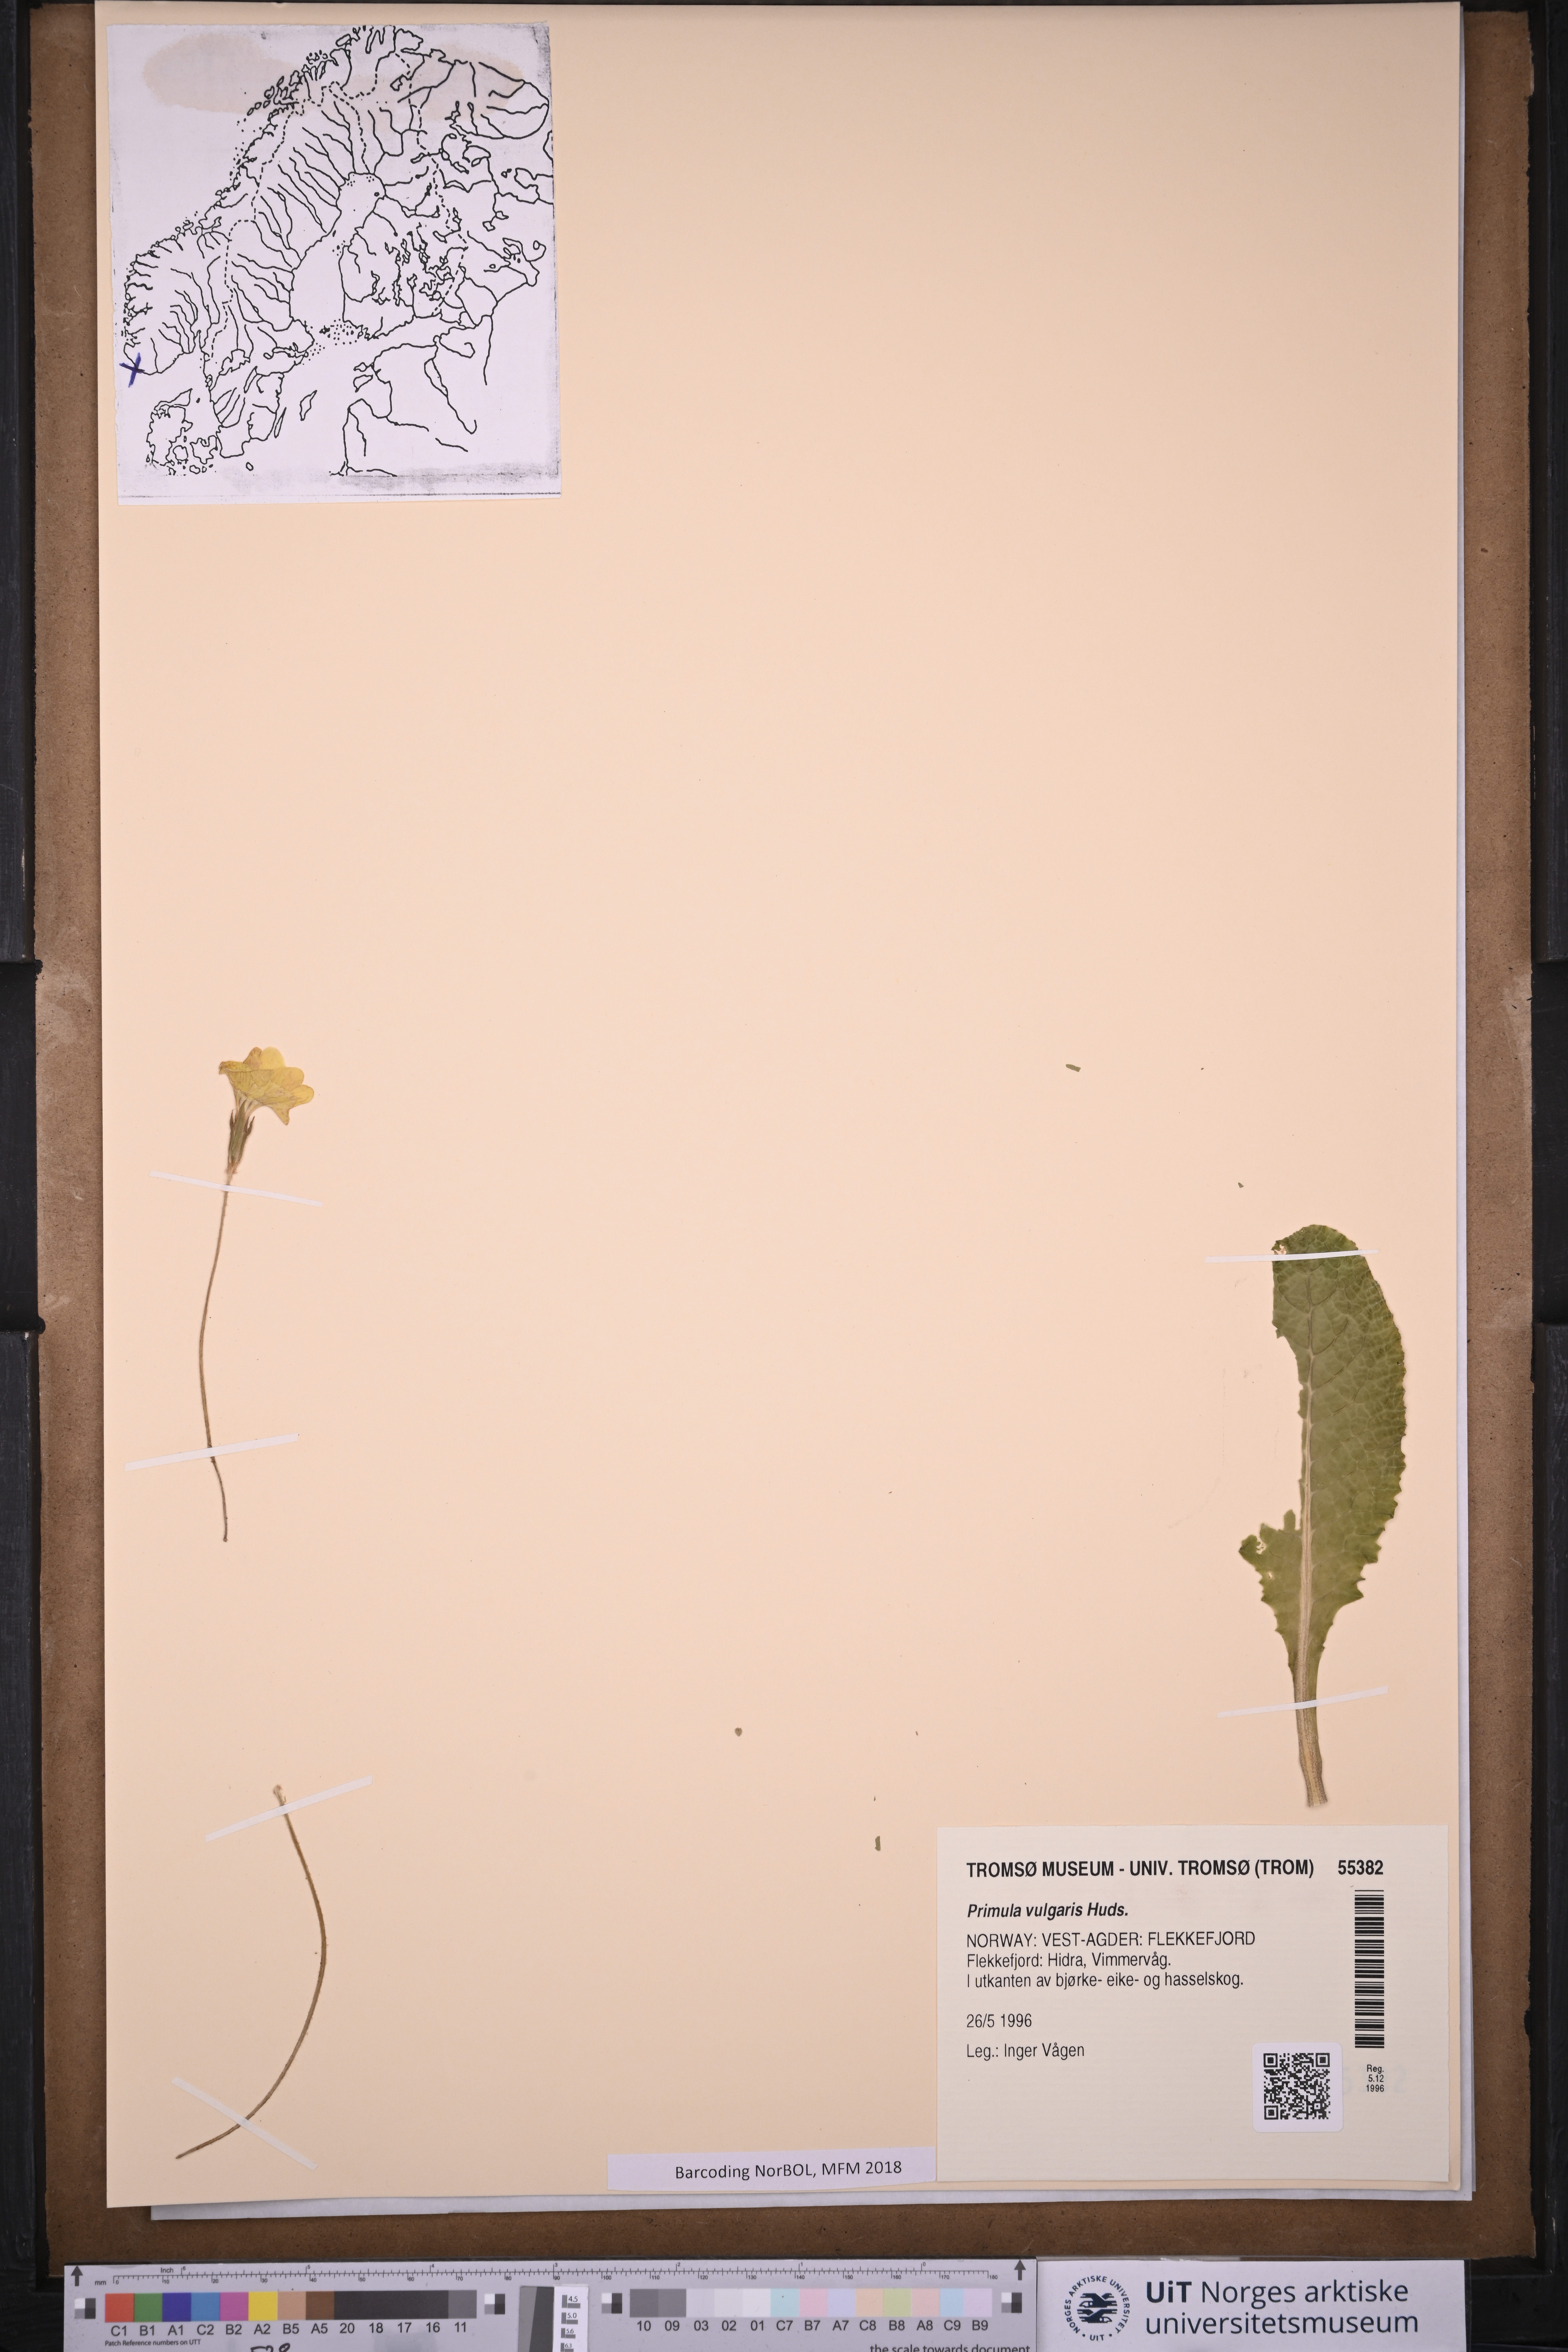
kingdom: Plantae
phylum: Tracheophyta
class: Magnoliopsida
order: Ericales
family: Primulaceae
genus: Primula
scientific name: Primula vulgaris
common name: Primrose
